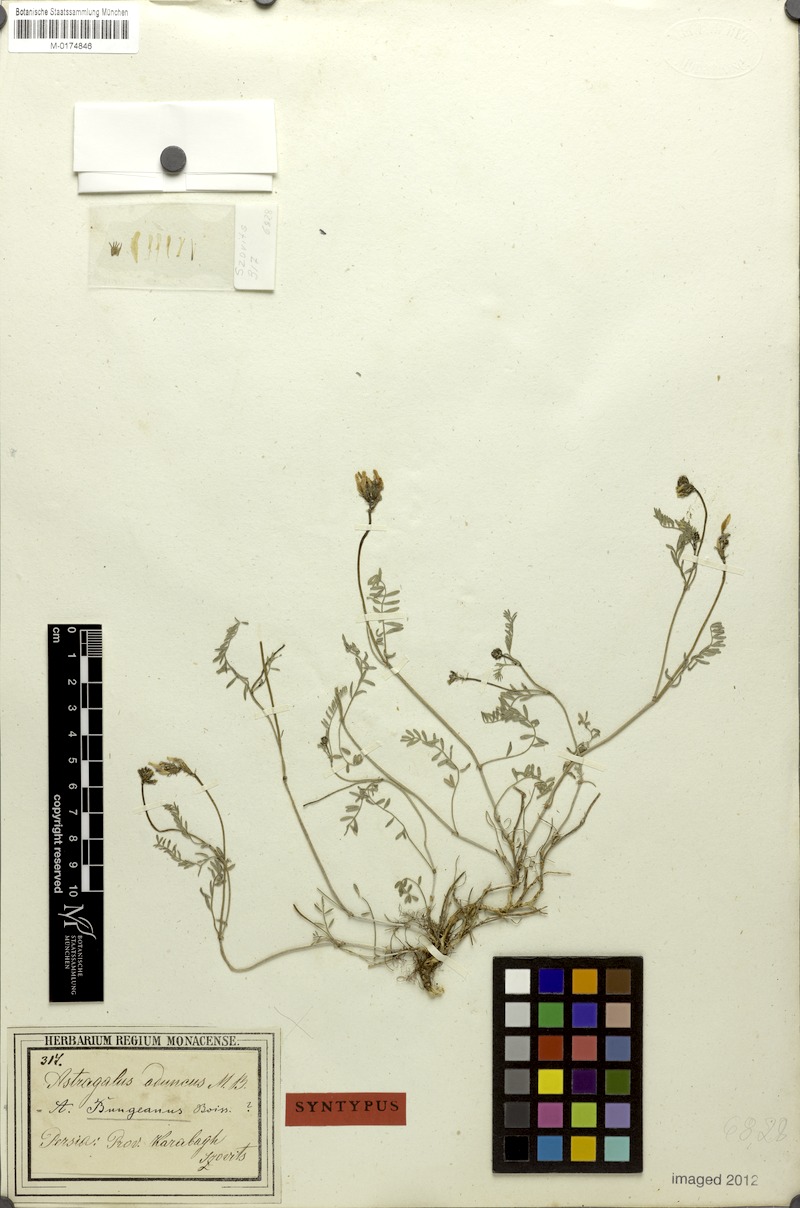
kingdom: Plantae
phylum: Tracheophyta
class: Magnoliopsida
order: Fabales
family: Fabaceae
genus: Astragalus
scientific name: Astragalus bungeanus
